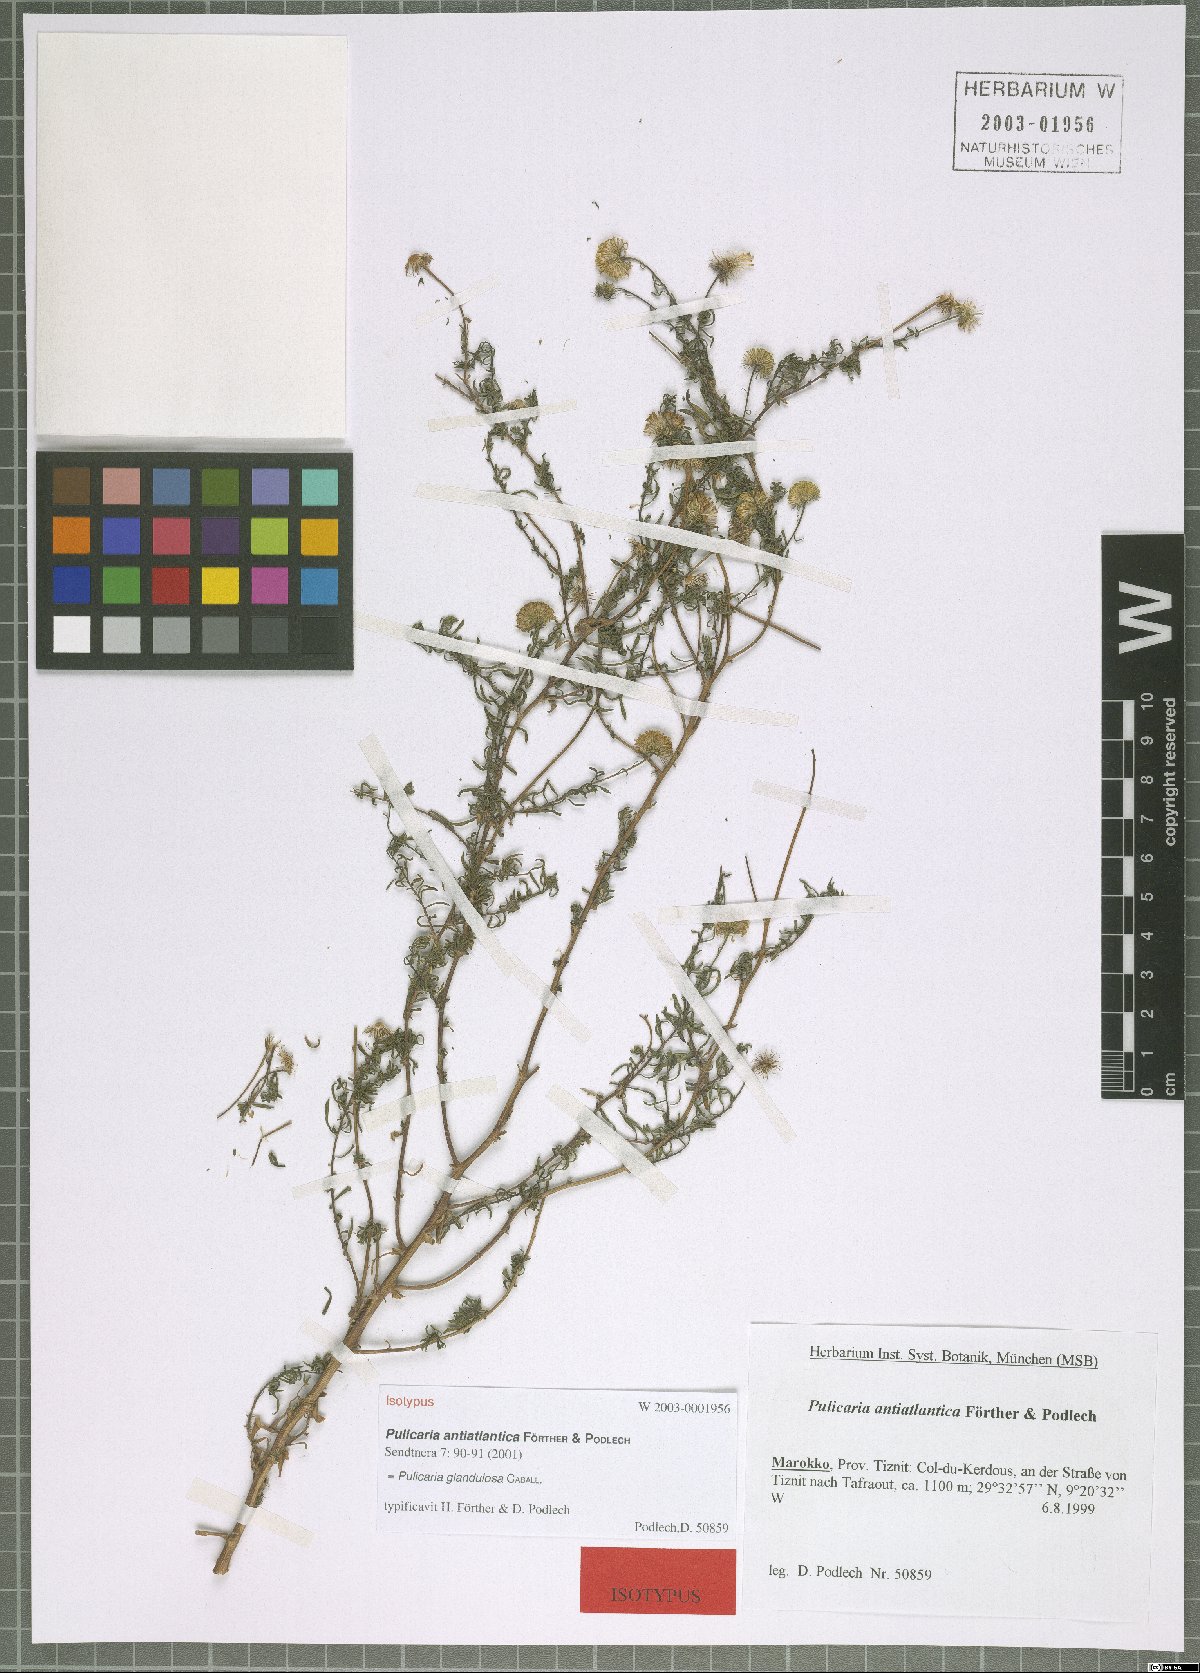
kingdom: Plantae
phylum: Tracheophyta
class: Magnoliopsida
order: Asterales
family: Asteraceae
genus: Pulicaria
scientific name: Pulicaria glandulosa
